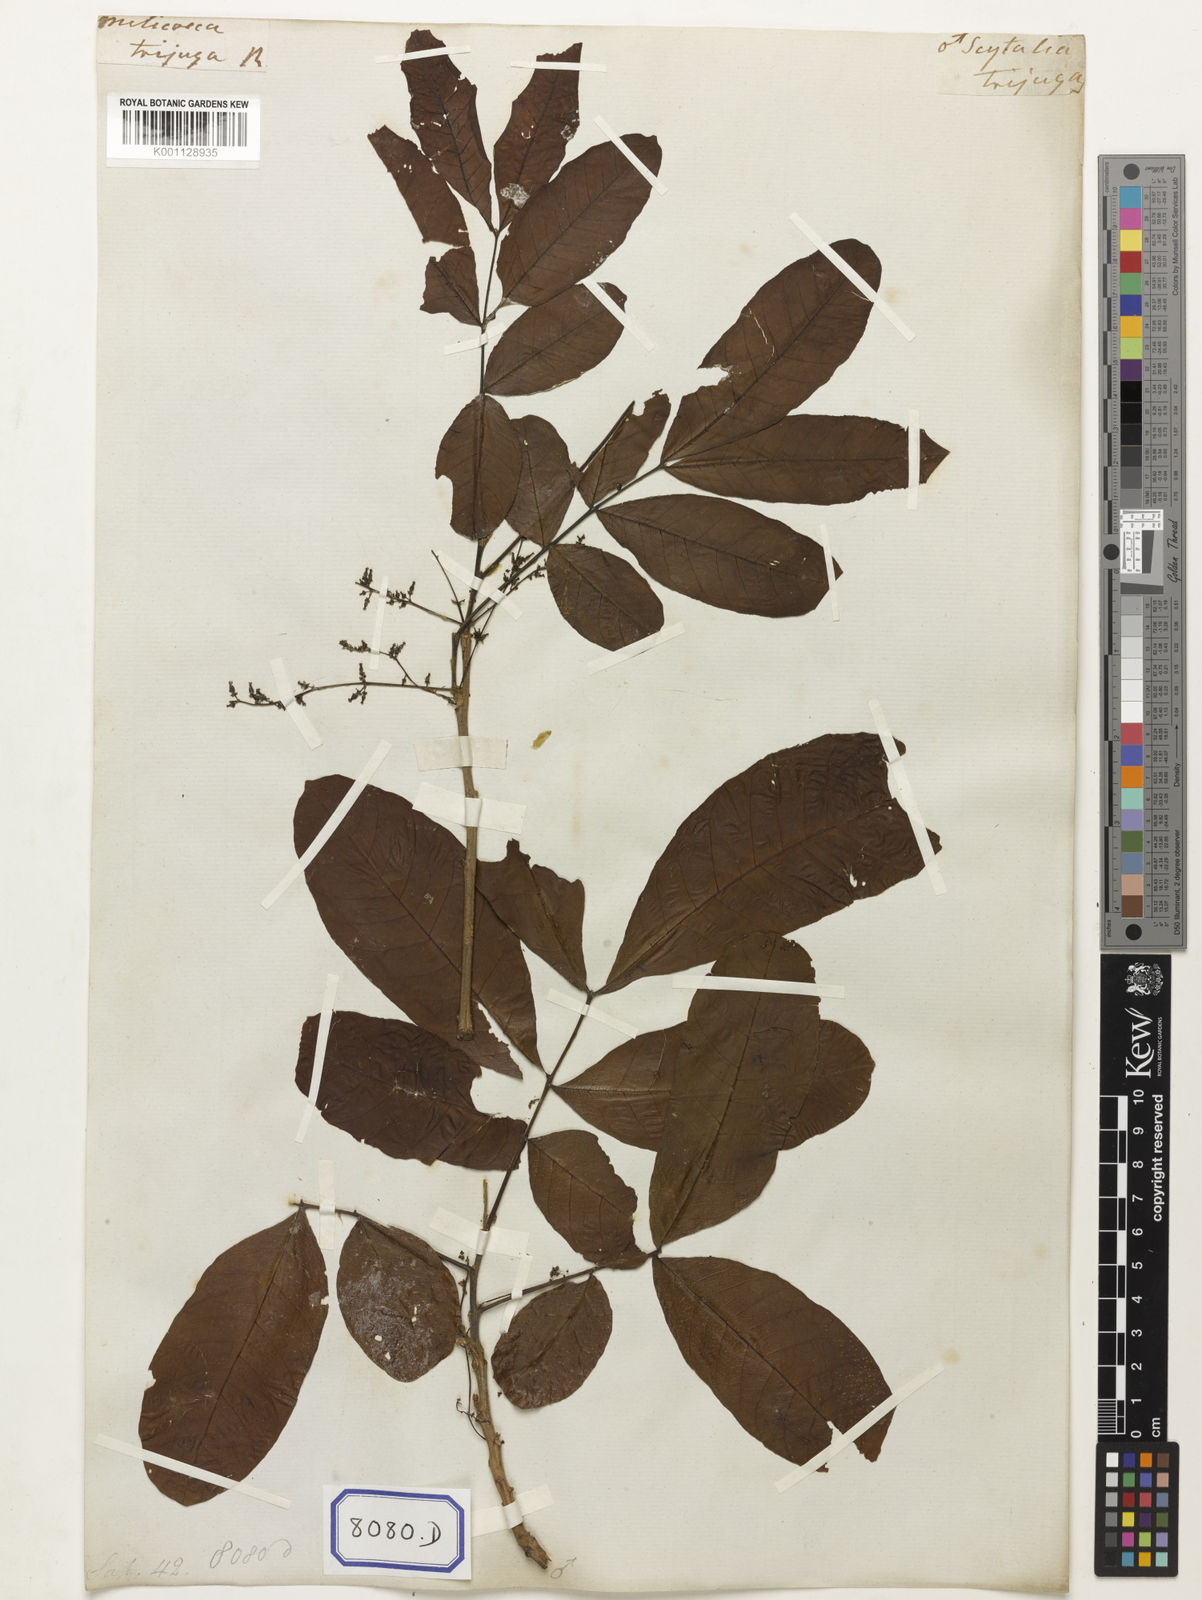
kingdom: Plantae
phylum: Tracheophyta
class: Magnoliopsida
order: Sapindales
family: Sapindaceae
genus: Schleichera
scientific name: Schleichera oleosa
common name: Malay lactree
